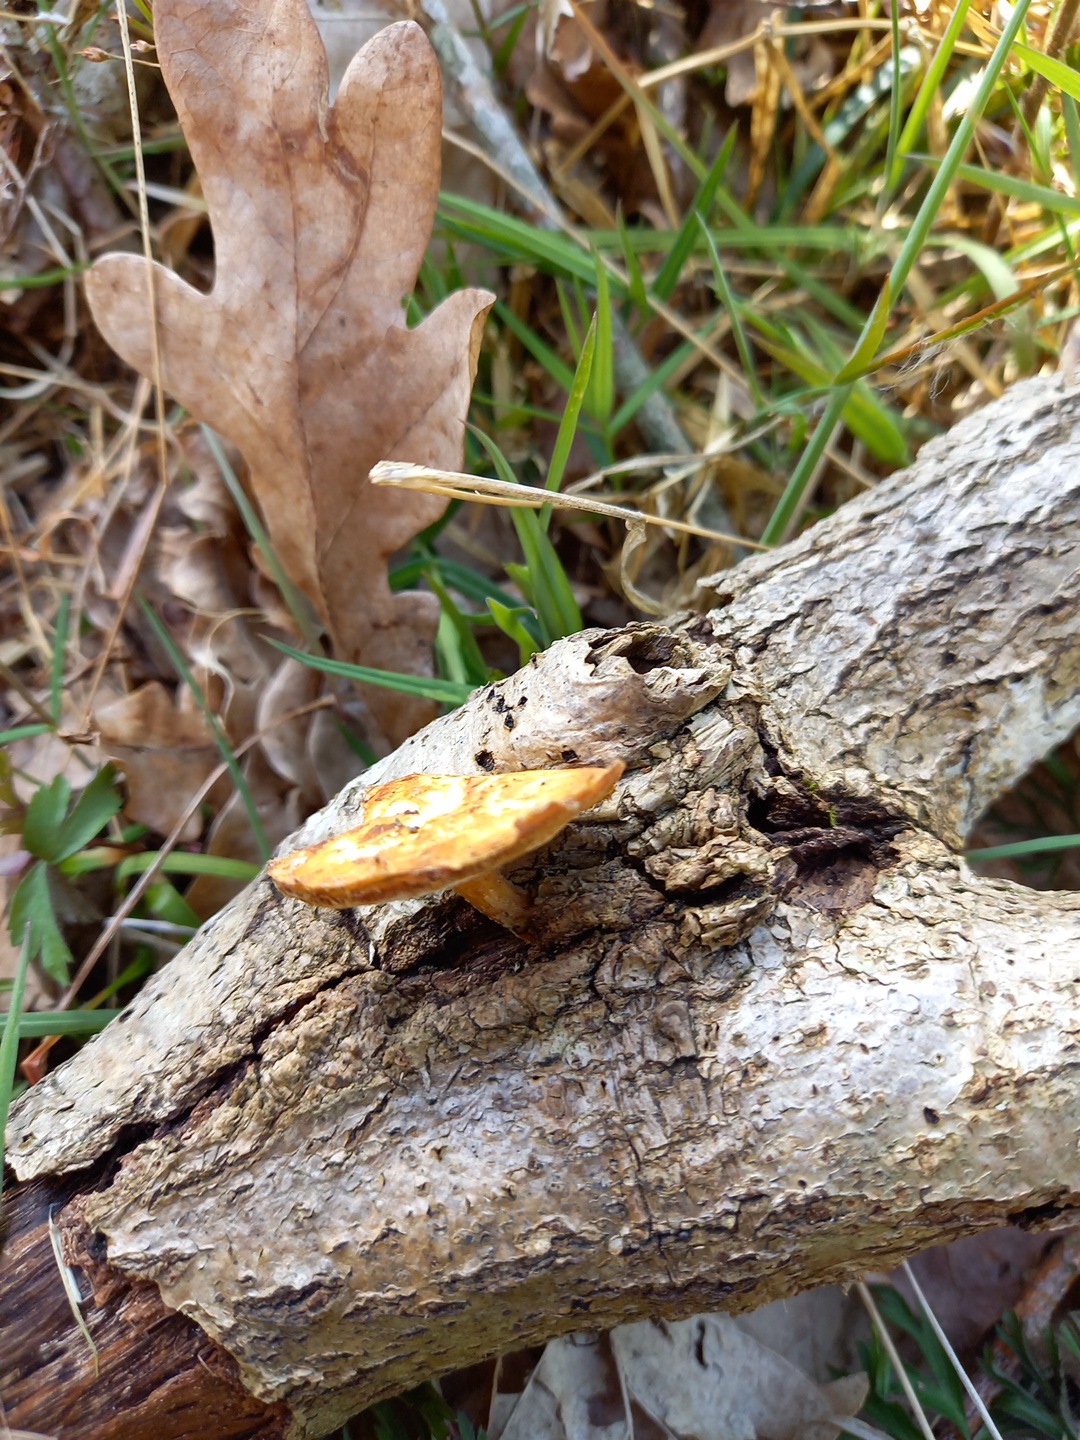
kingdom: Fungi
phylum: Basidiomycota
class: Agaricomycetes
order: Polyporales
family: Polyporaceae
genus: Lentinus
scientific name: Lentinus brumalis
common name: vinter-stilkporesvamp
